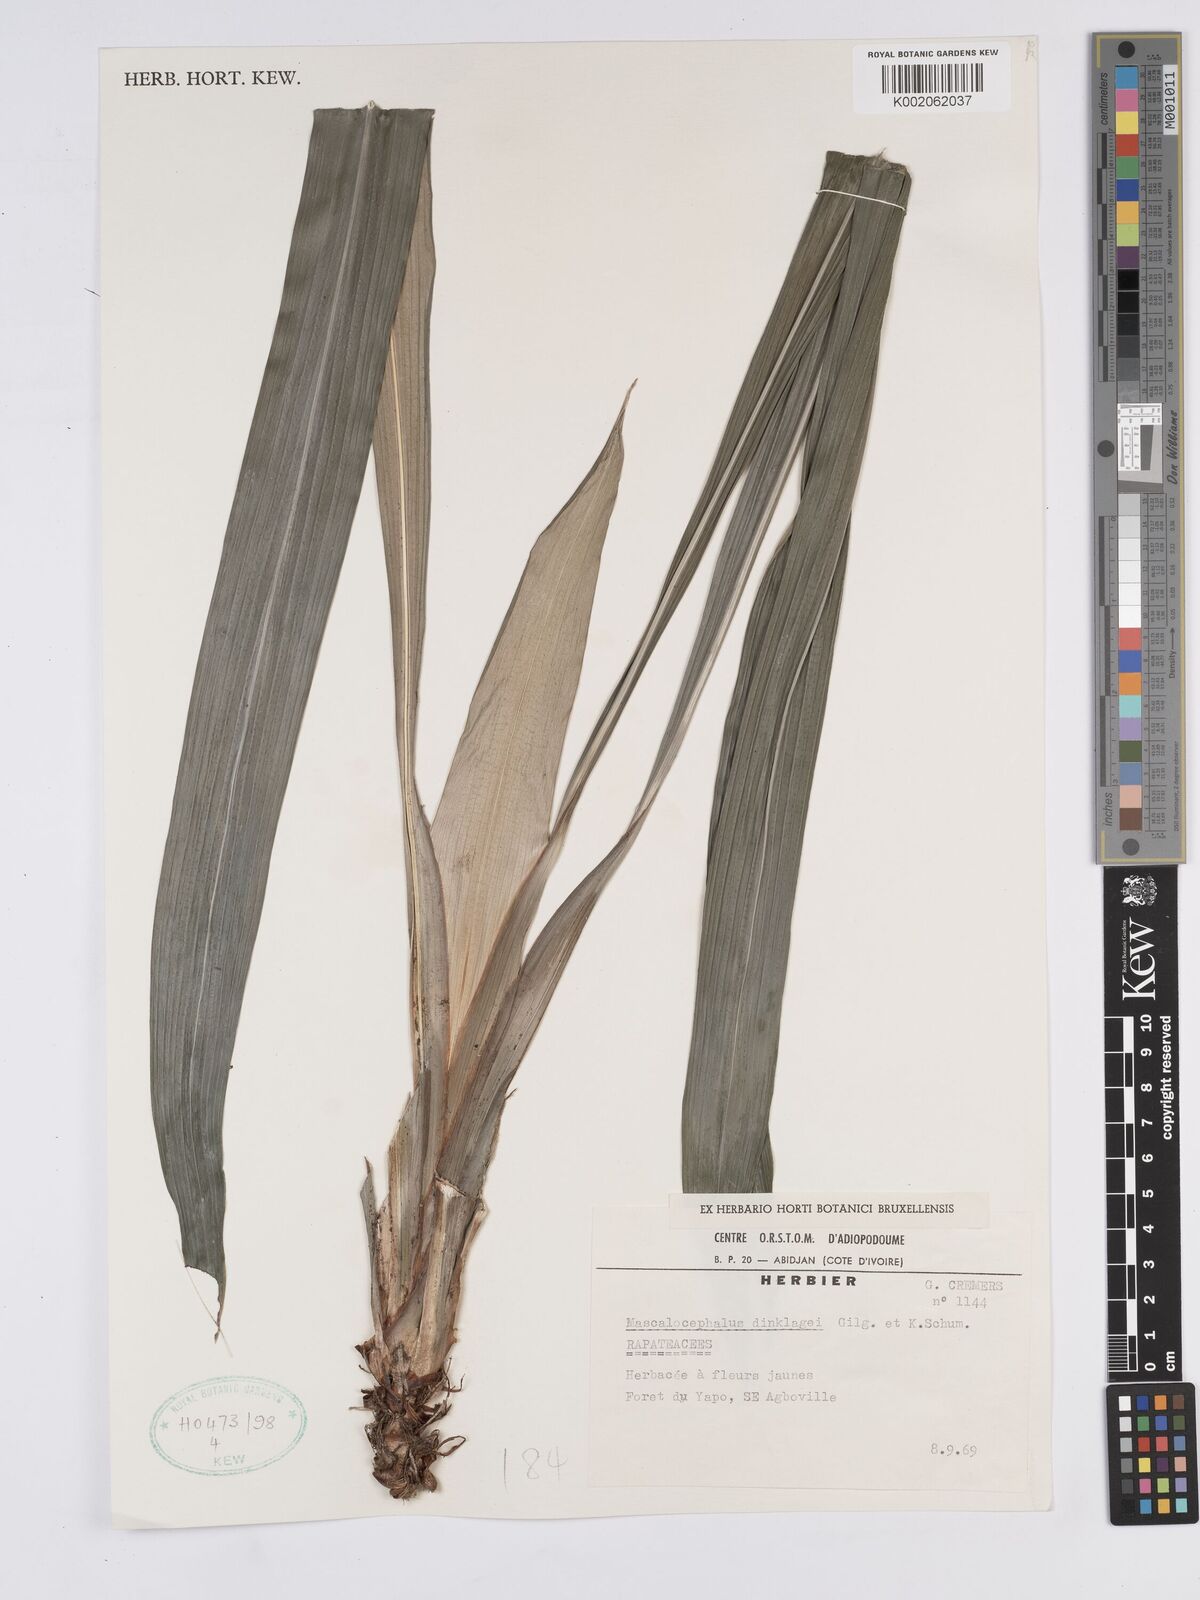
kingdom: Plantae
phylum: Tracheophyta
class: Liliopsida
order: Poales
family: Rapateaceae
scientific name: Rapateaceae
